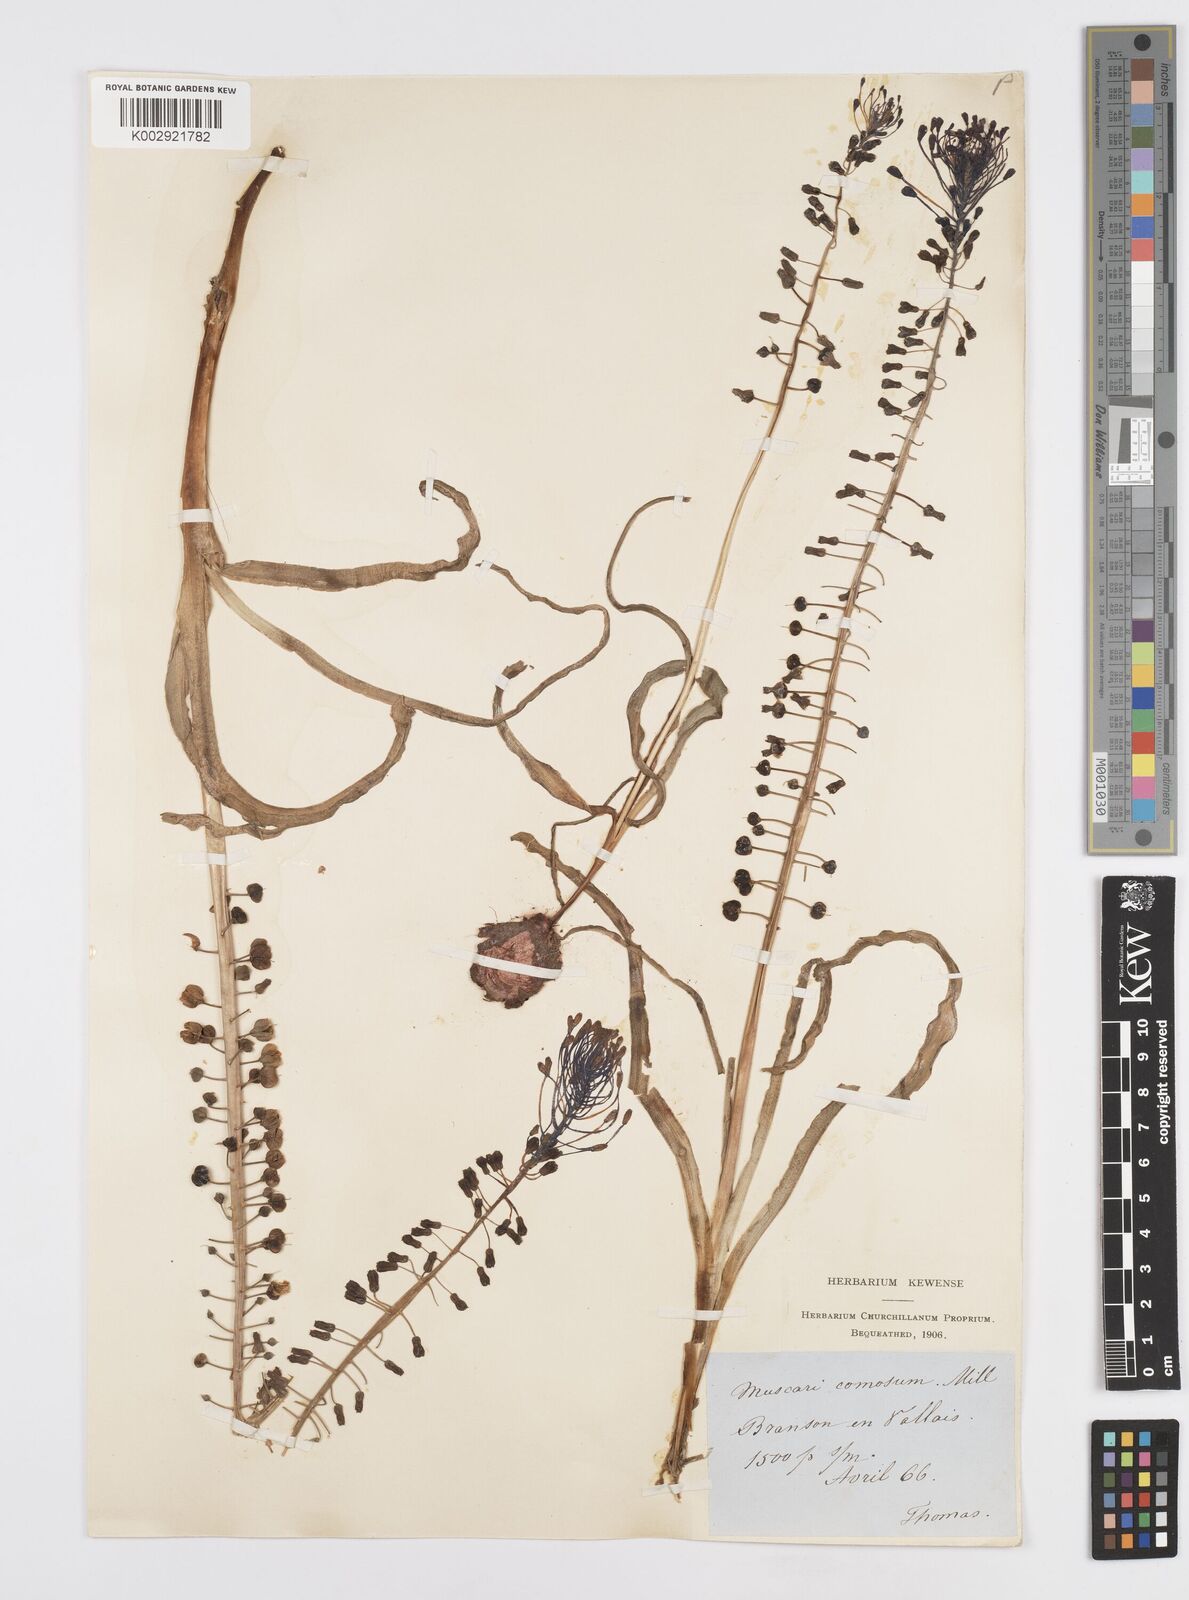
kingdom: Plantae
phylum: Tracheophyta
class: Liliopsida
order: Asparagales
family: Asparagaceae
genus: Muscari
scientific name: Muscari comosum
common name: Tassel hyacinth
